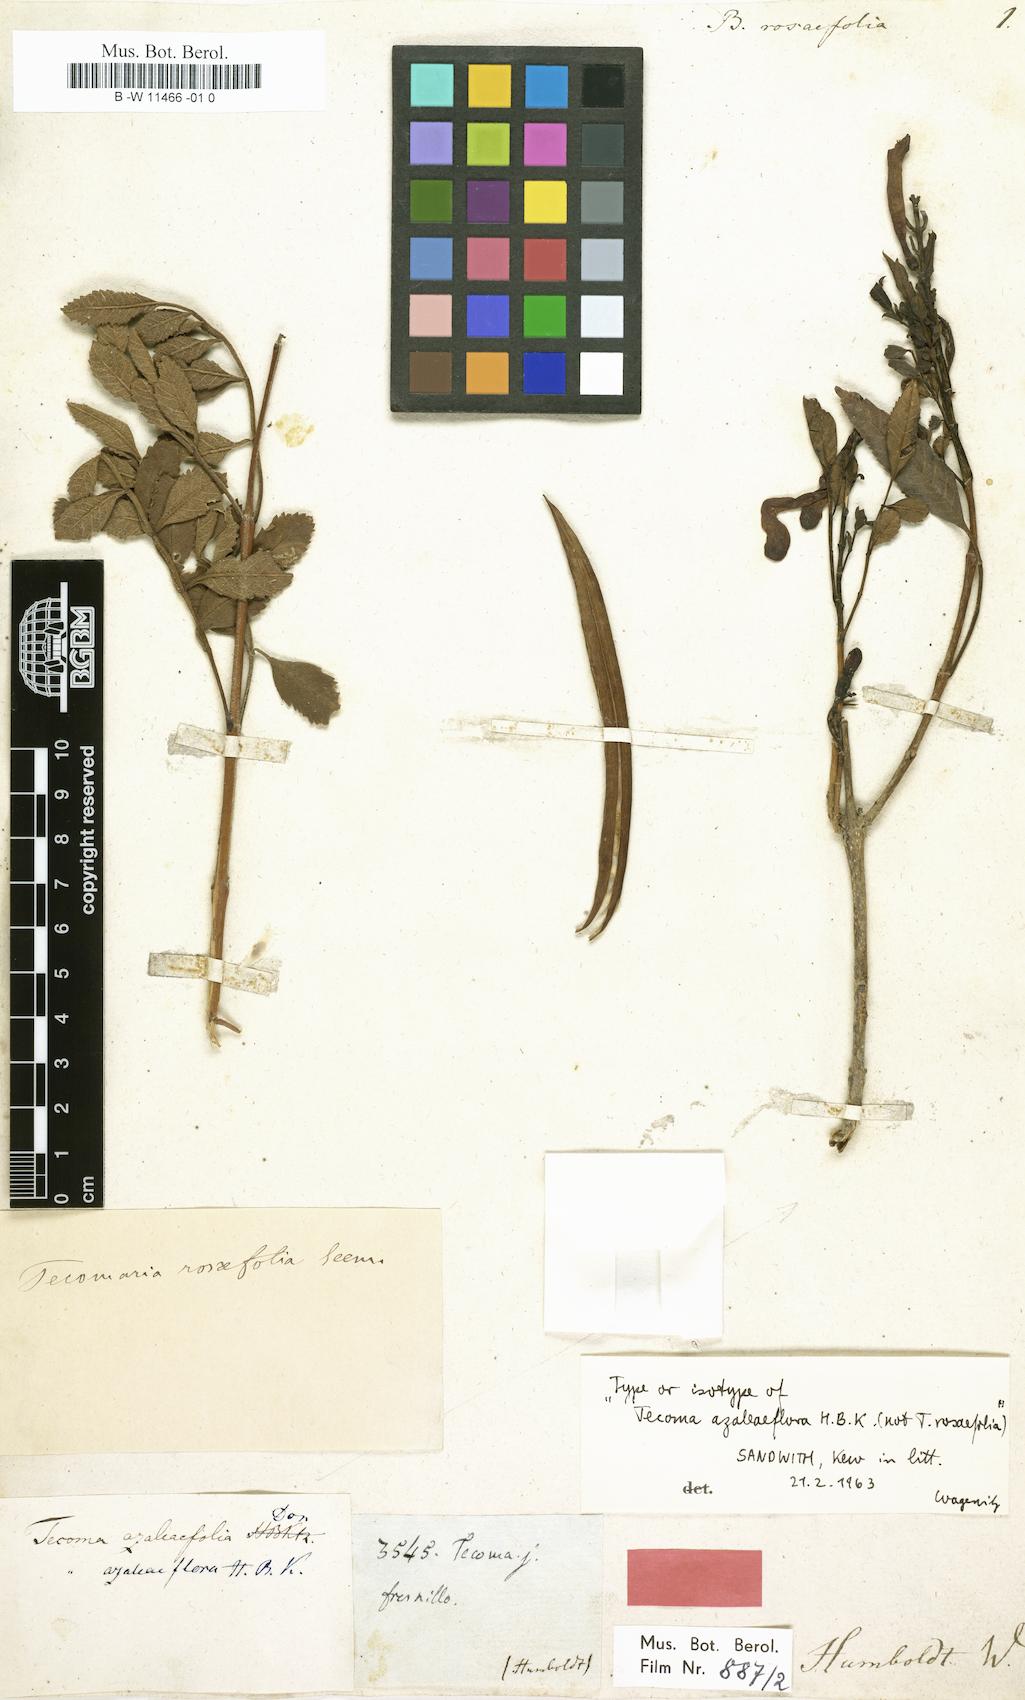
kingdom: Plantae
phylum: Tracheophyta
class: Magnoliopsida
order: Lamiales
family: Bignoniaceae
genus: Bignonia
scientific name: Bignonia
